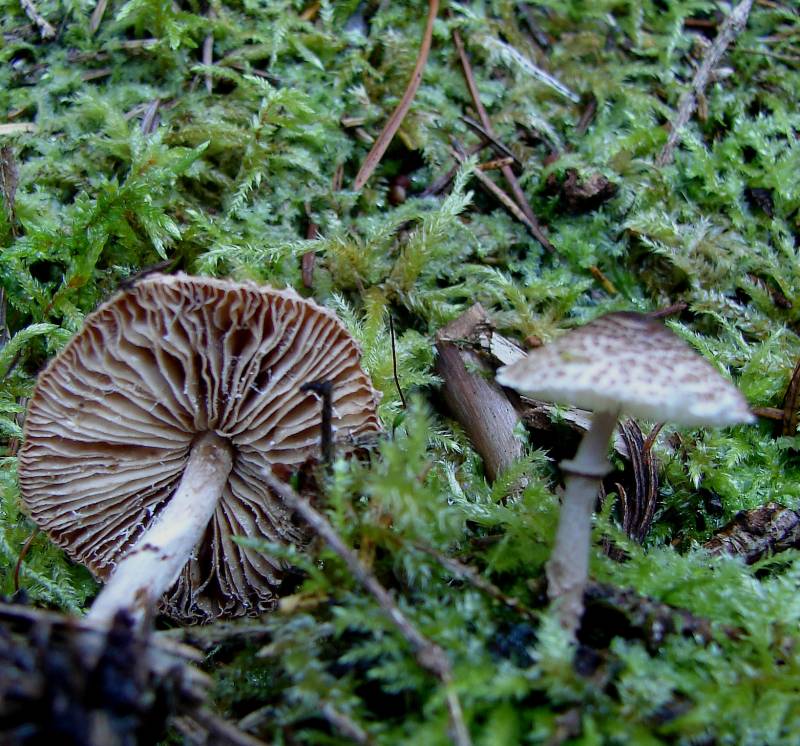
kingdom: Fungi
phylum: Basidiomycota
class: Agaricomycetes
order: Agaricales
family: Agaricaceae
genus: Lepiota
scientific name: Lepiota felina
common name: sortskællet parasolhat
